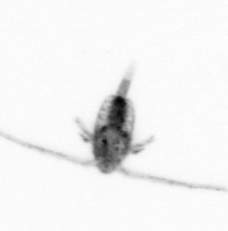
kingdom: Animalia
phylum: Arthropoda
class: Copepoda
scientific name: Copepoda
